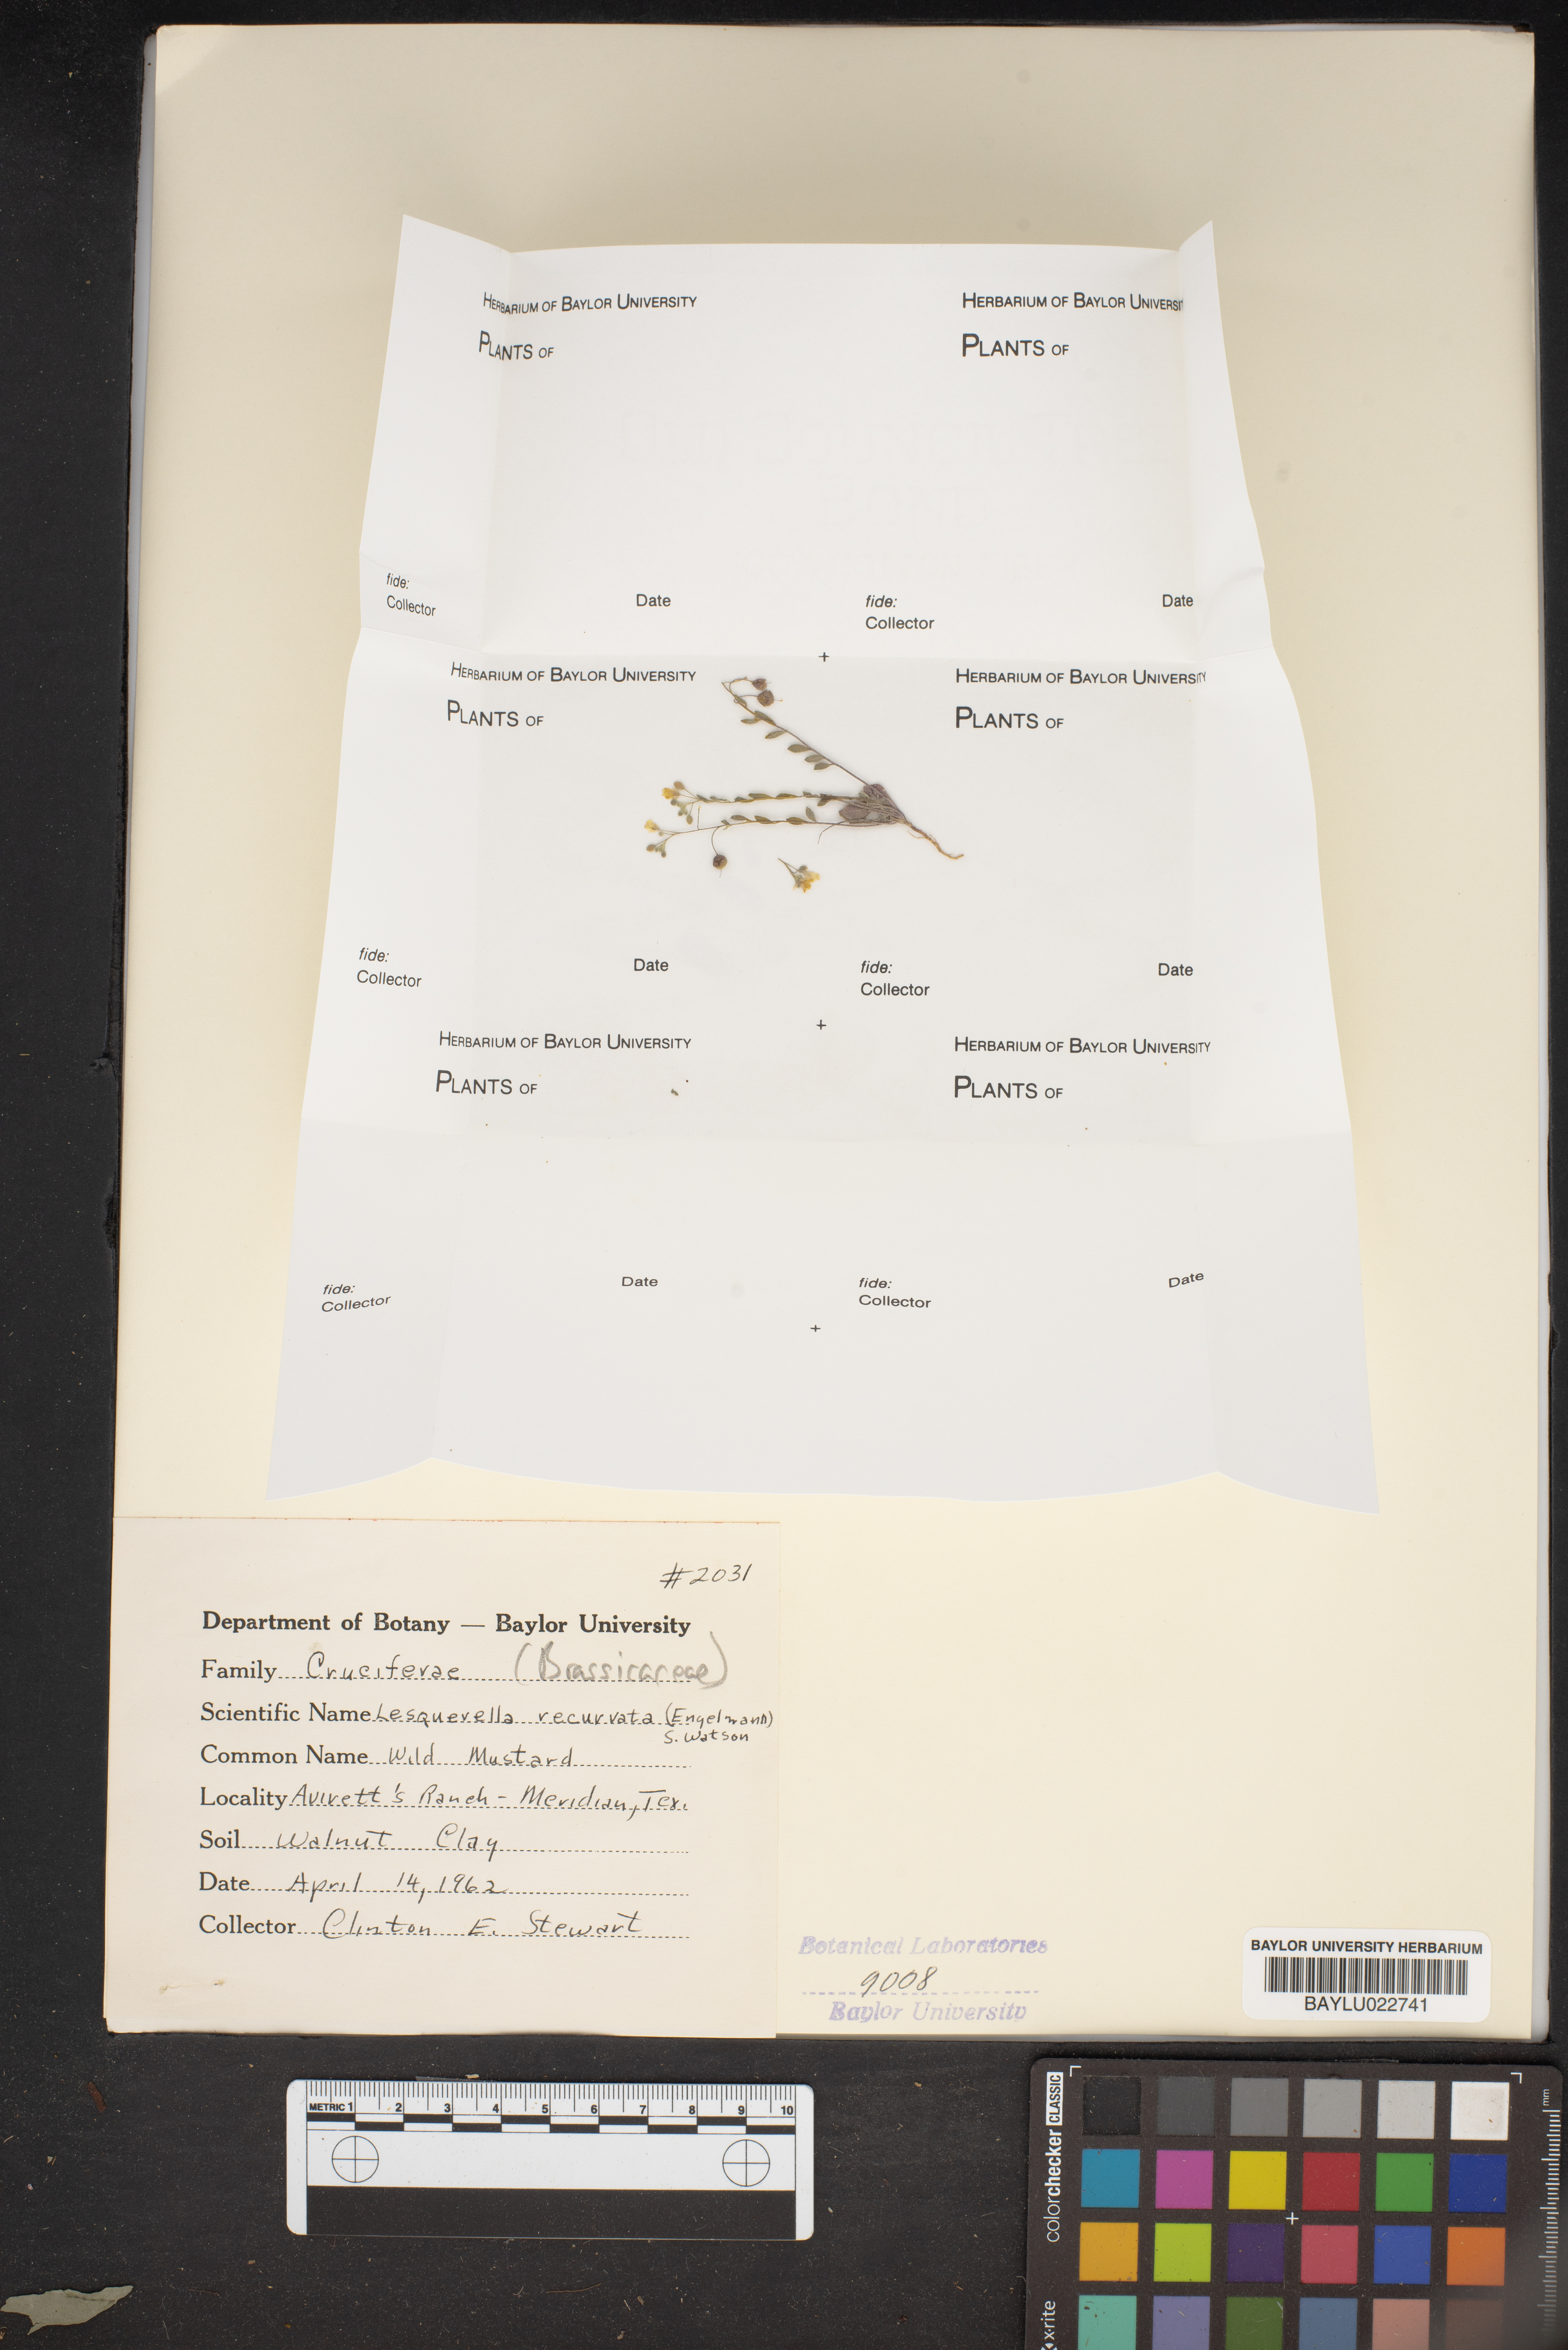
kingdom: Plantae
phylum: Tracheophyta
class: Magnoliopsida
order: Brassicales
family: Brassicaceae
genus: Physaria
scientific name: Physaria recurvata
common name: Gaslight bladderpod
